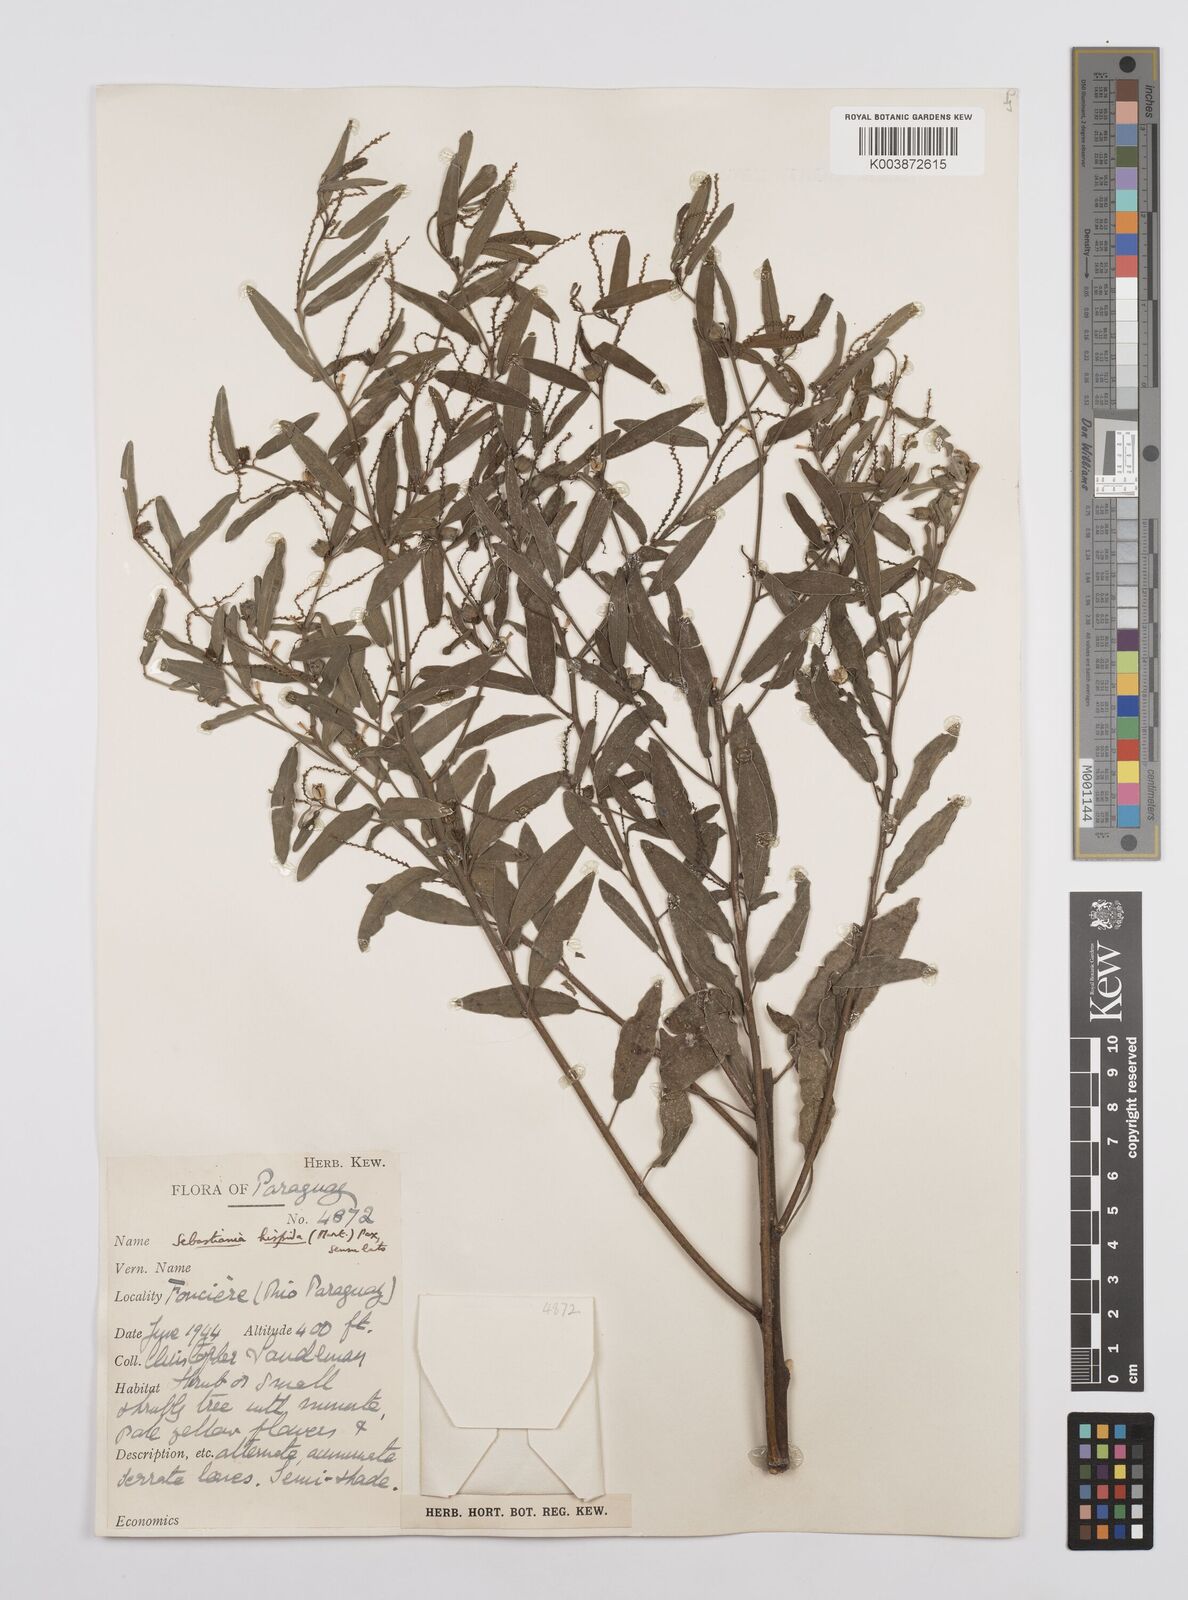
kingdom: Plantae
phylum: Tracheophyta
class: Magnoliopsida
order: Malpighiales
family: Euphorbiaceae
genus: Microstachys
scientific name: Microstachys hispida
